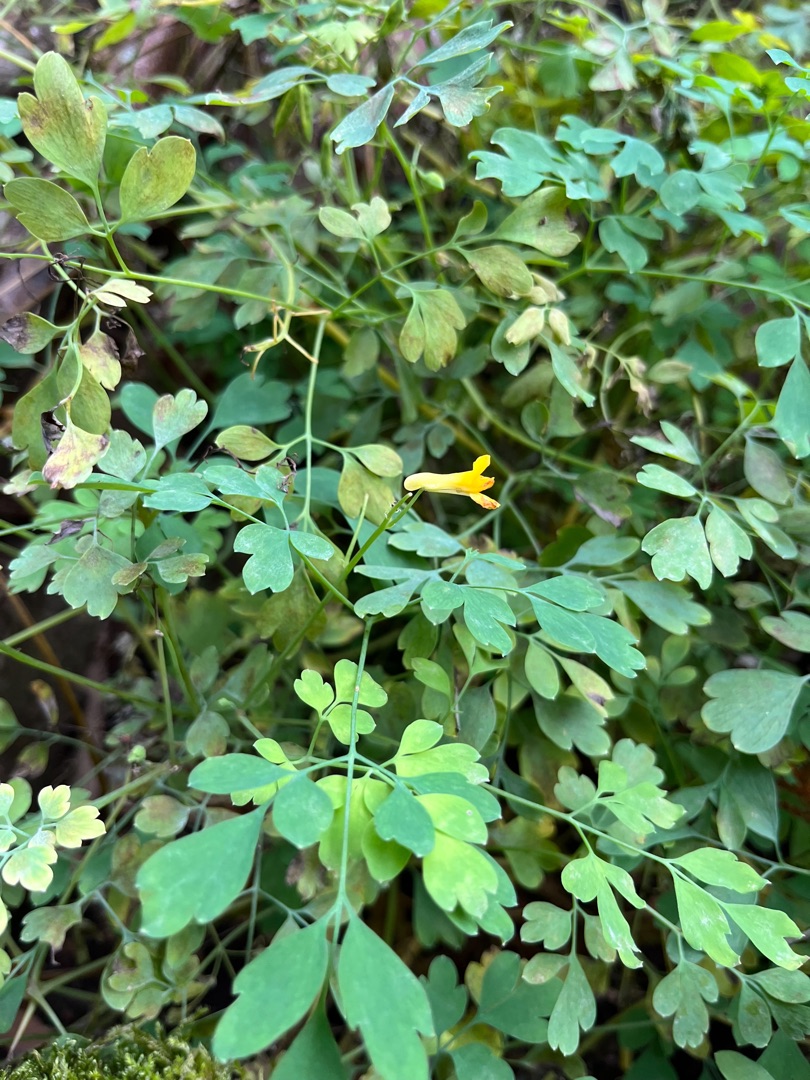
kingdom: Plantae
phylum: Tracheophyta
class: Magnoliopsida
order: Ranunculales
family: Papaveraceae
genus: Pseudofumaria
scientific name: Pseudofumaria lutea
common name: Gul lærkespore
